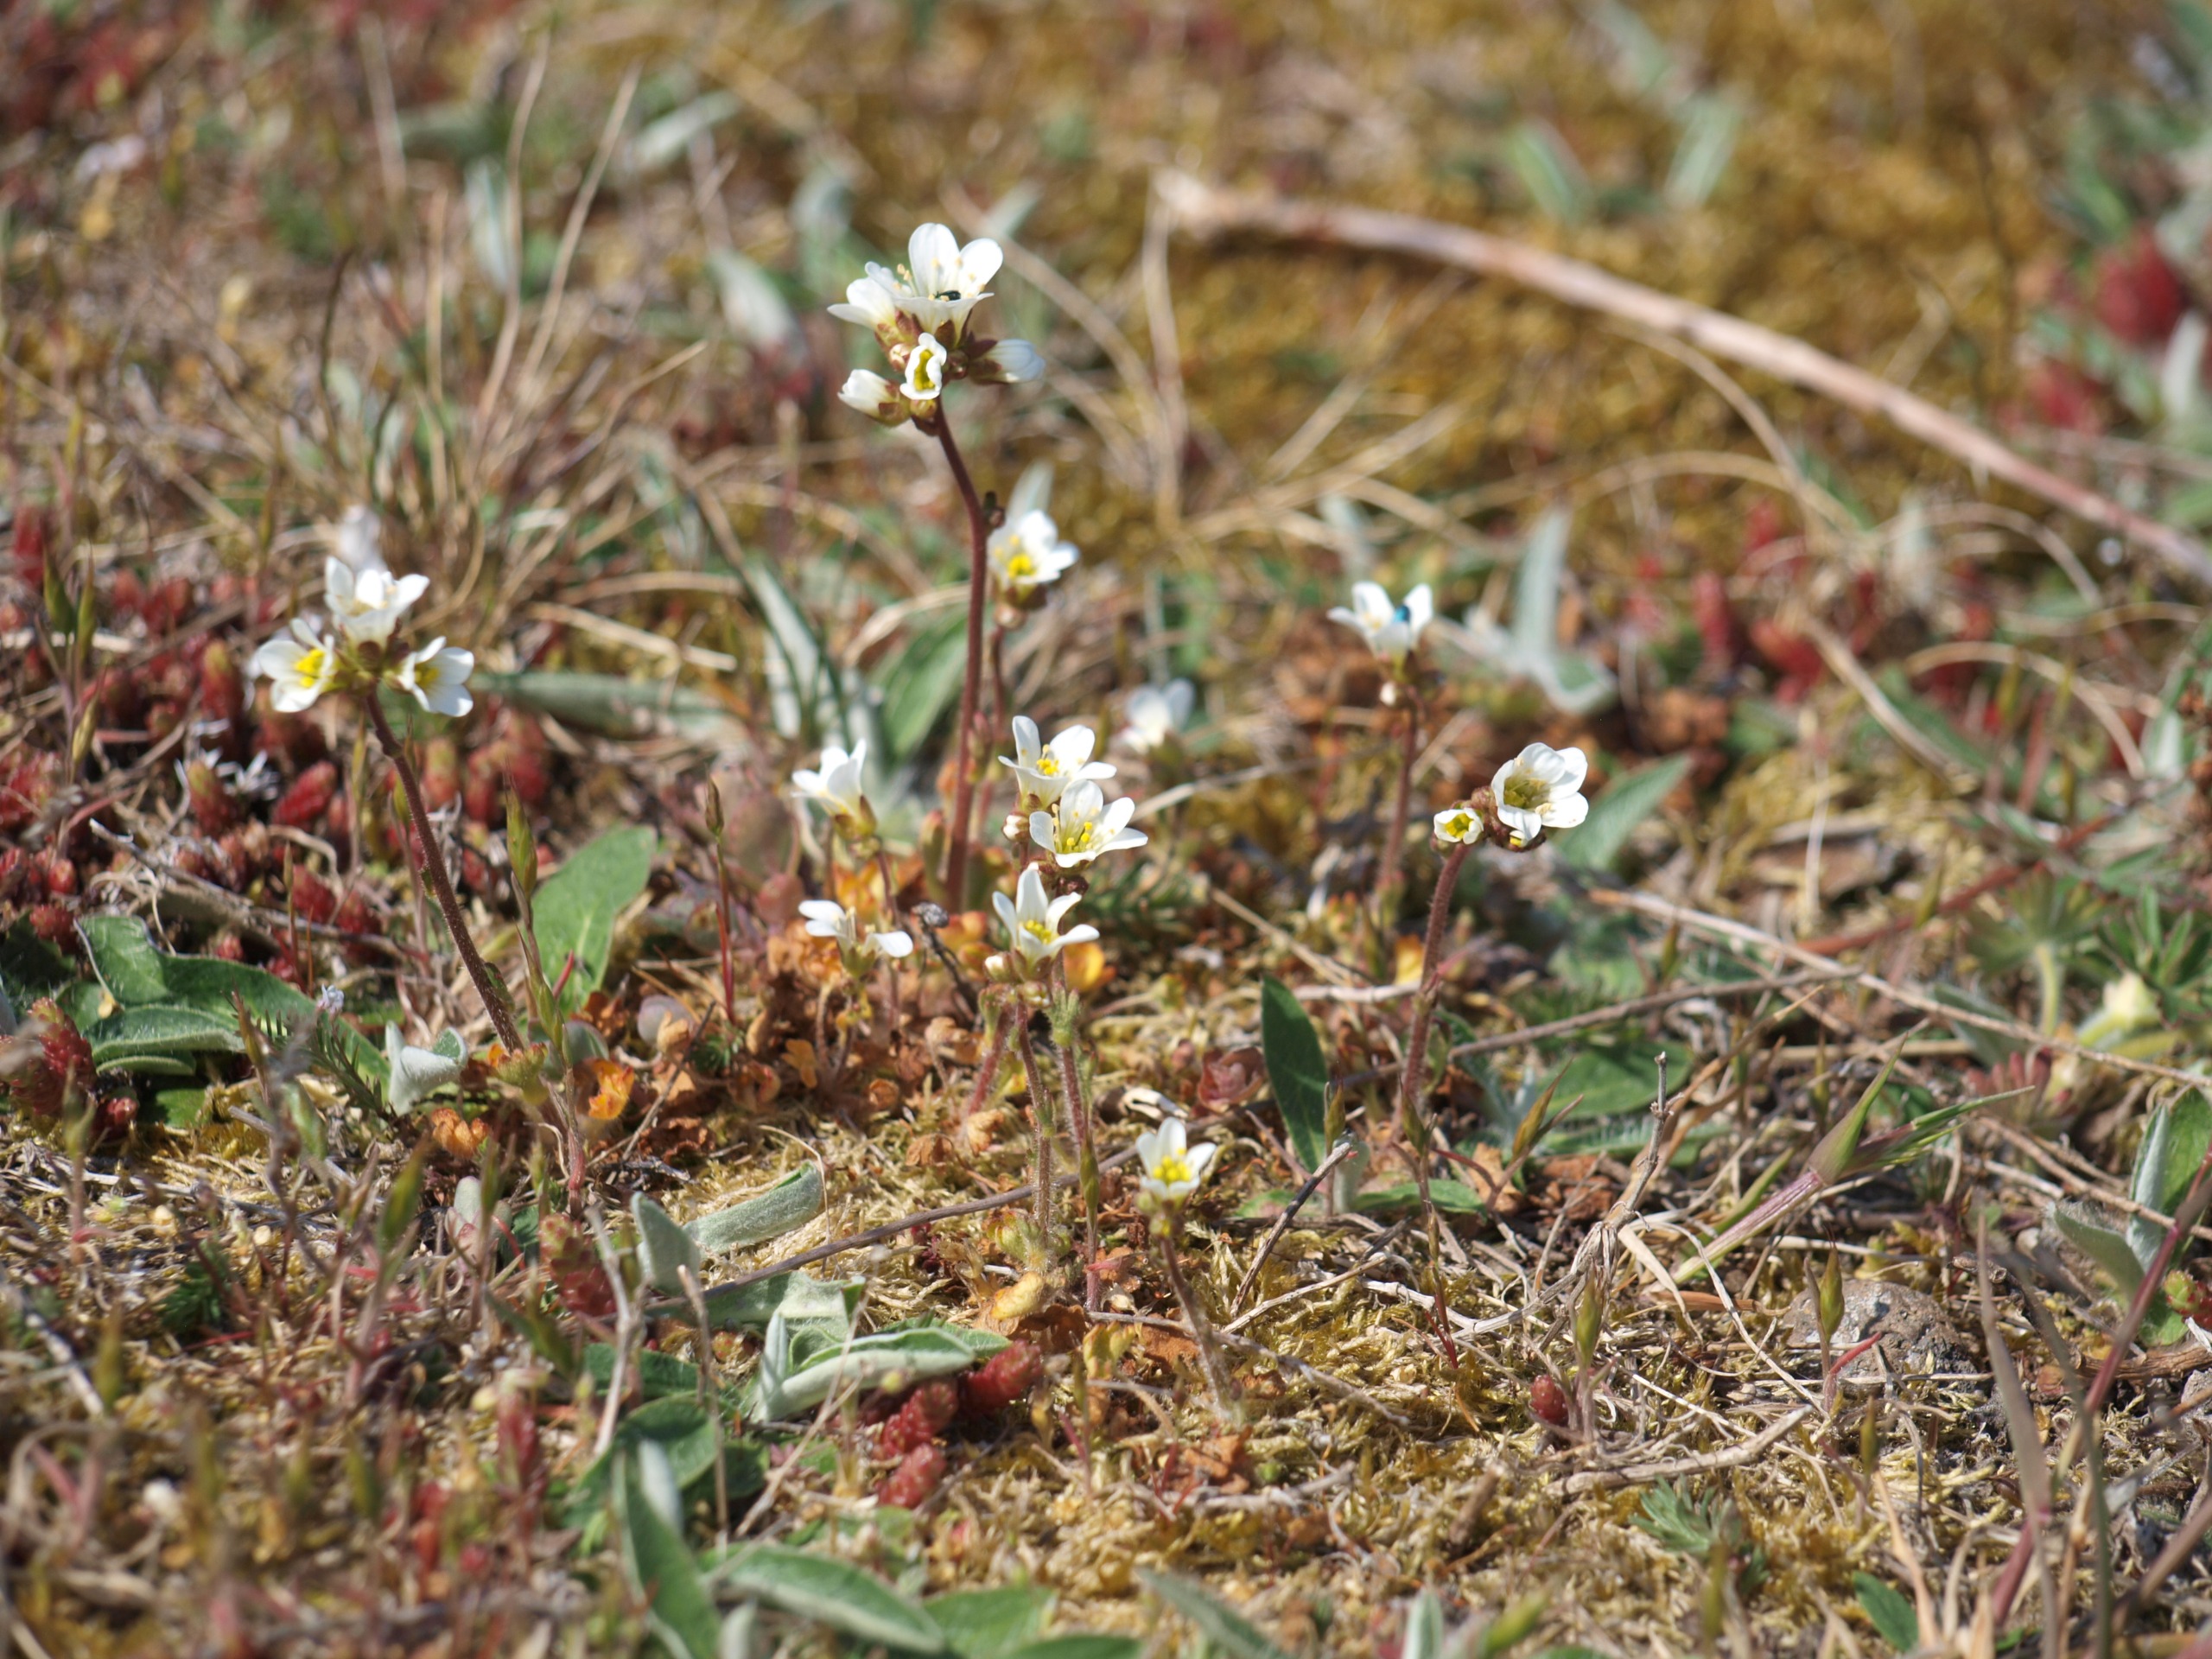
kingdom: Plantae
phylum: Tracheophyta
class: Magnoliopsida
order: Saxifragales
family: Saxifragaceae
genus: Saxifraga
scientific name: Saxifraga granulata
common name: Kornet stenbræk
